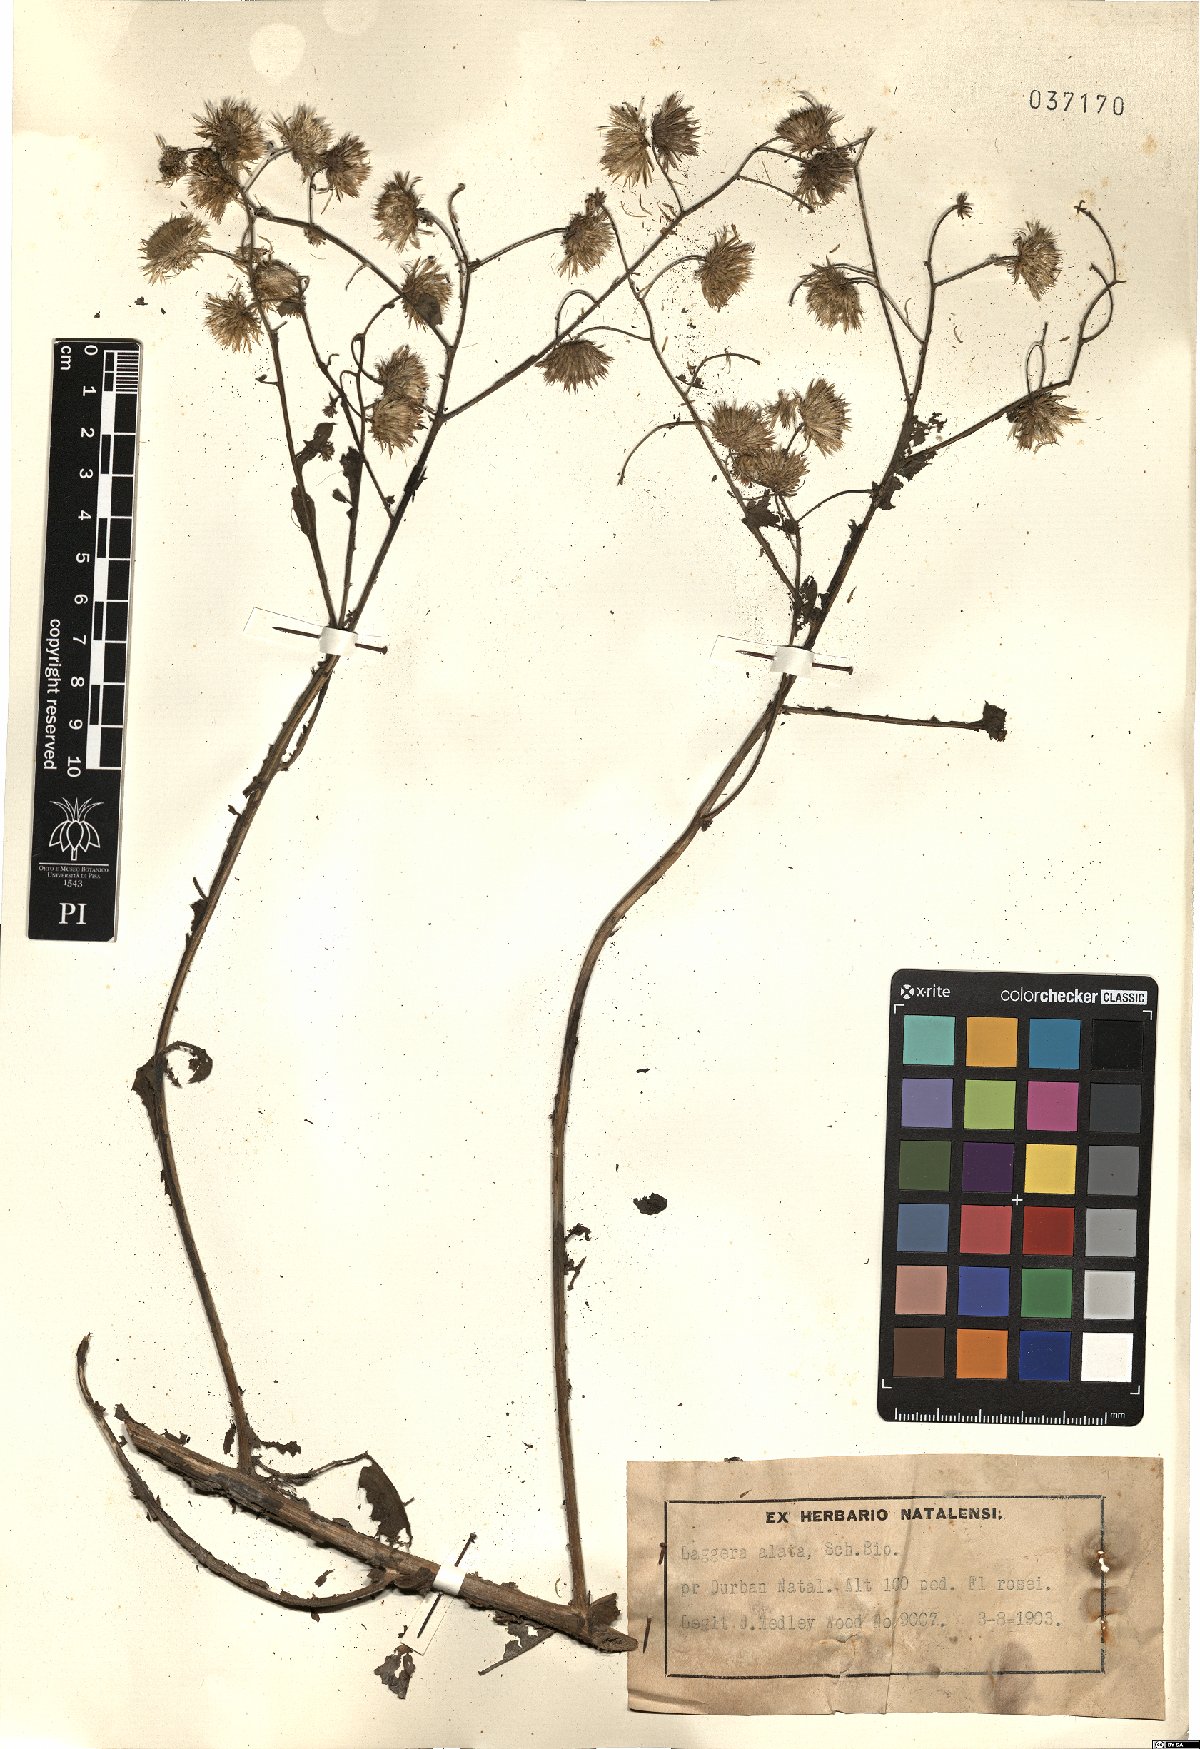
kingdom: Plantae
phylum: Tracheophyta
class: Magnoliopsida
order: Asterales
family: Asteraceae
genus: Laggera
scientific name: Laggera alata
